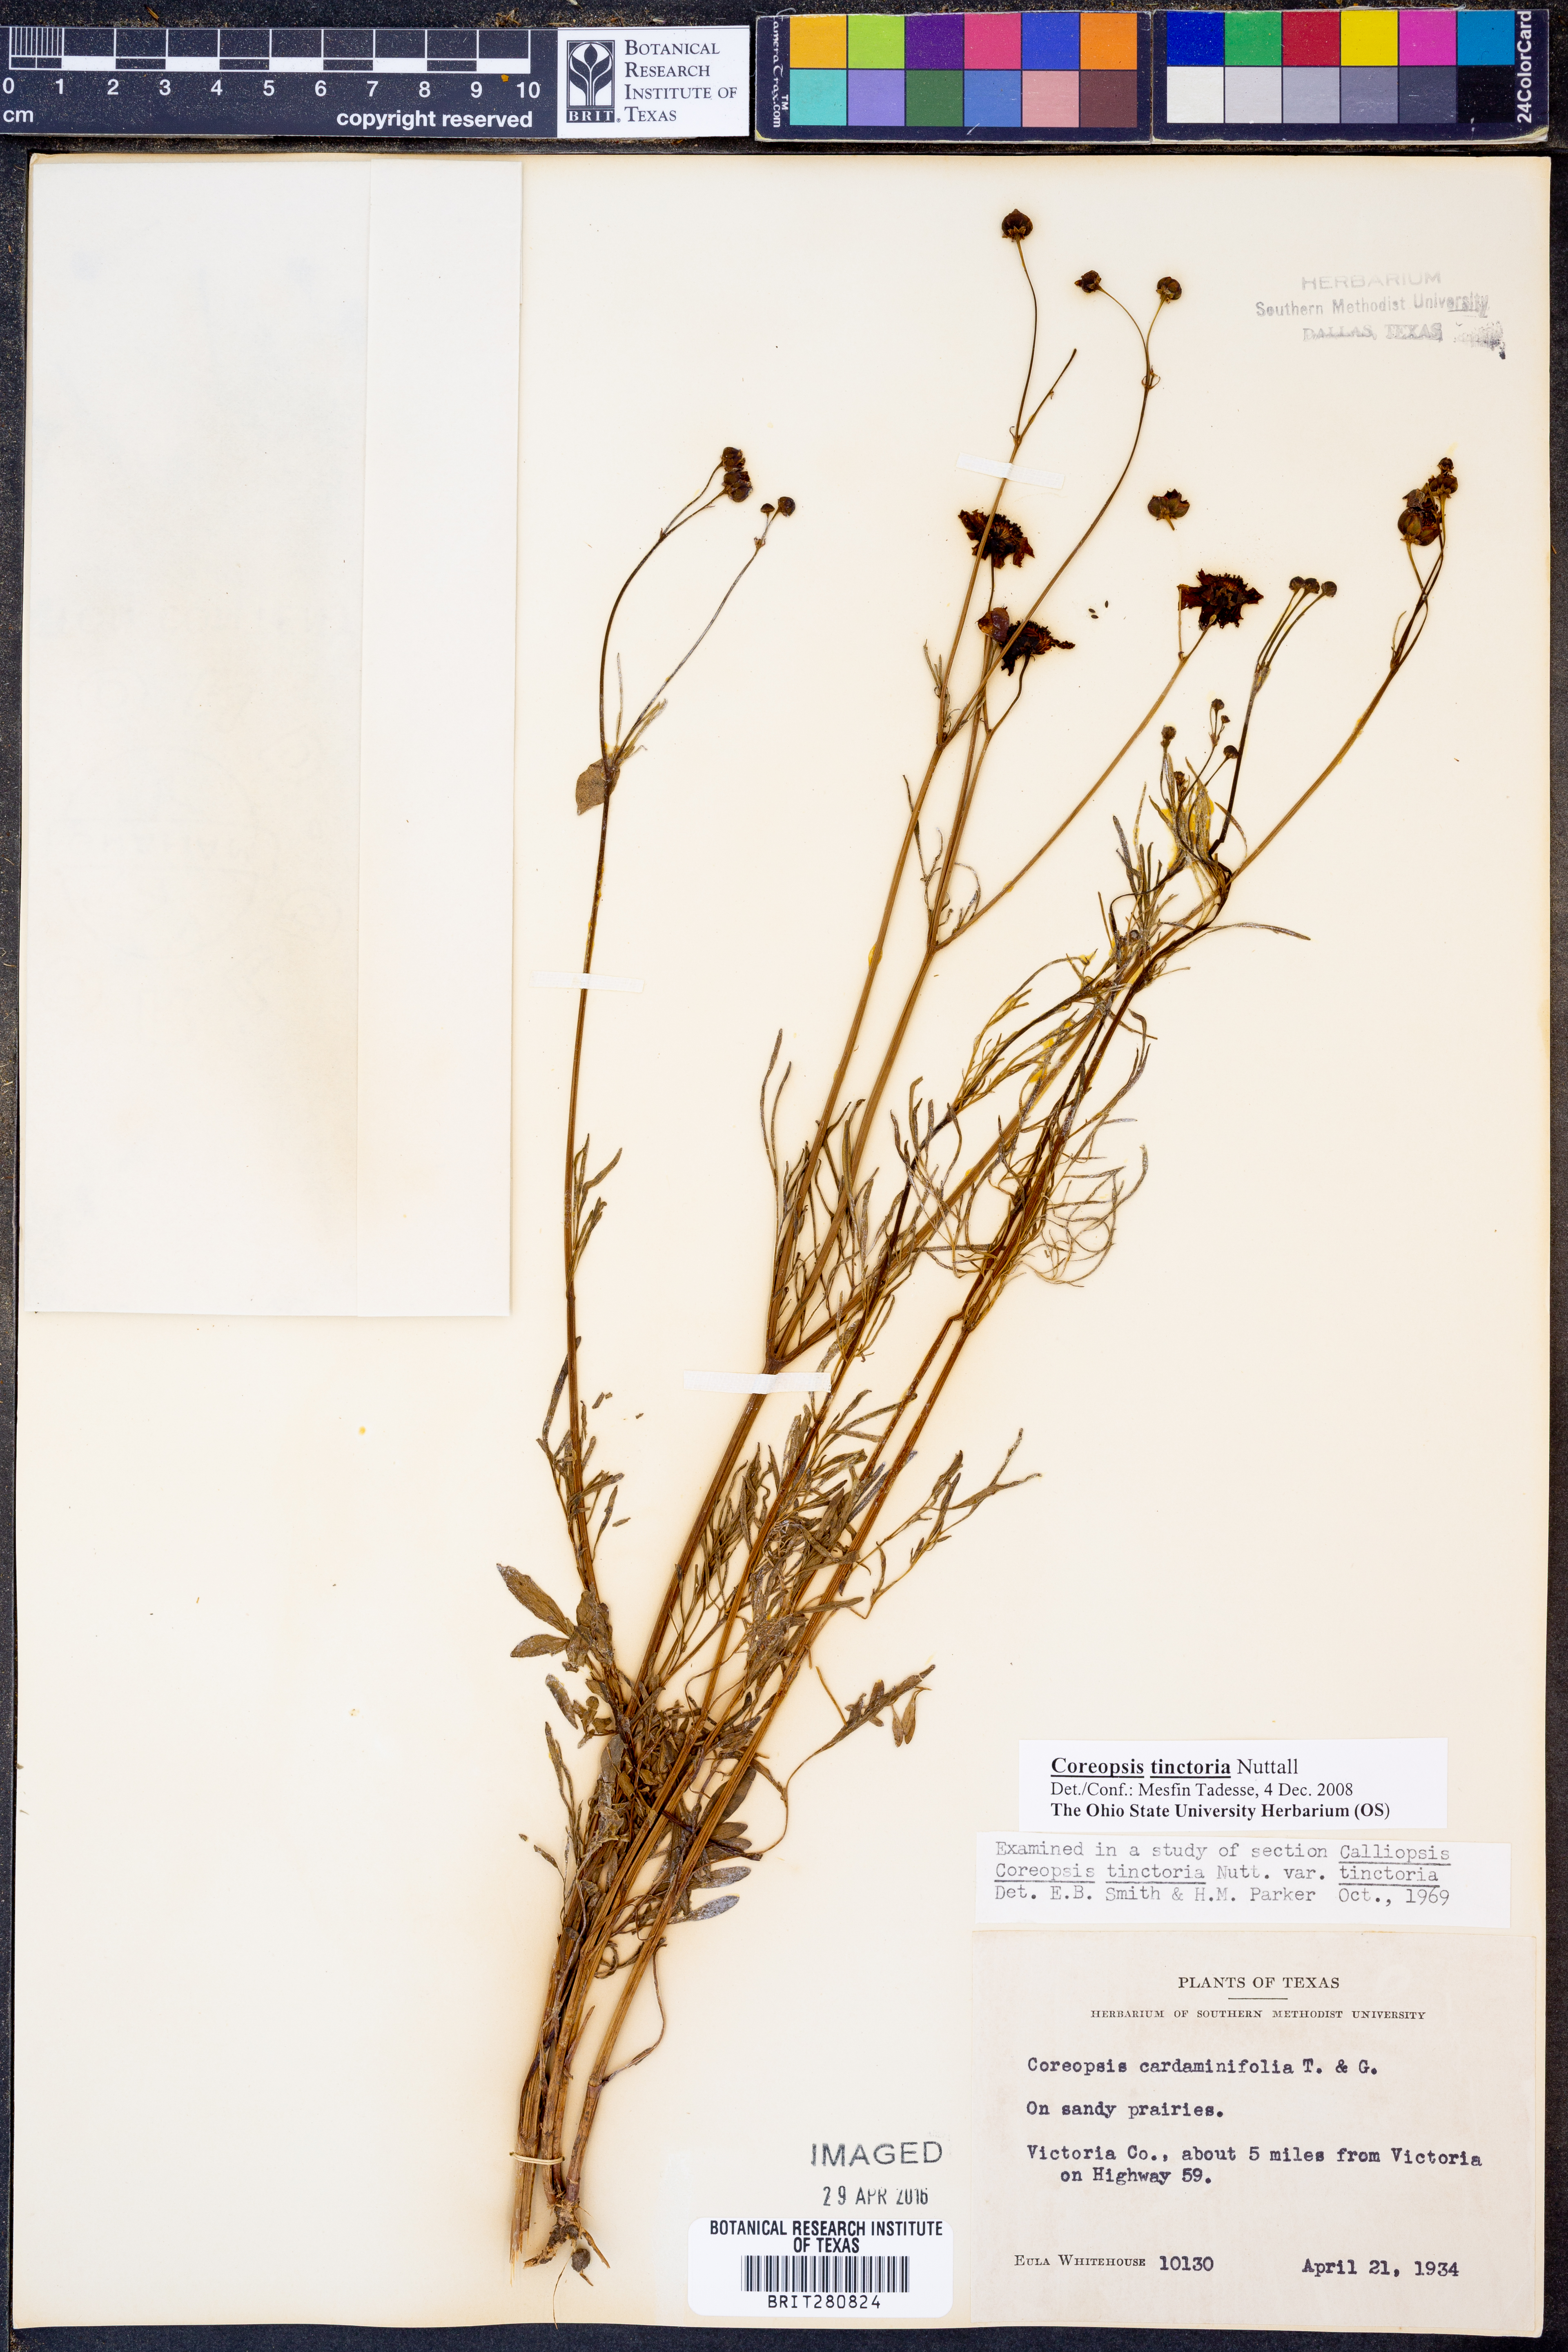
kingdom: Plantae
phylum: Tracheophyta
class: Magnoliopsida
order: Asterales
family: Asteraceae
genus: Coreopsis
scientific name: Coreopsis tinctoria
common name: Garden tickseed
